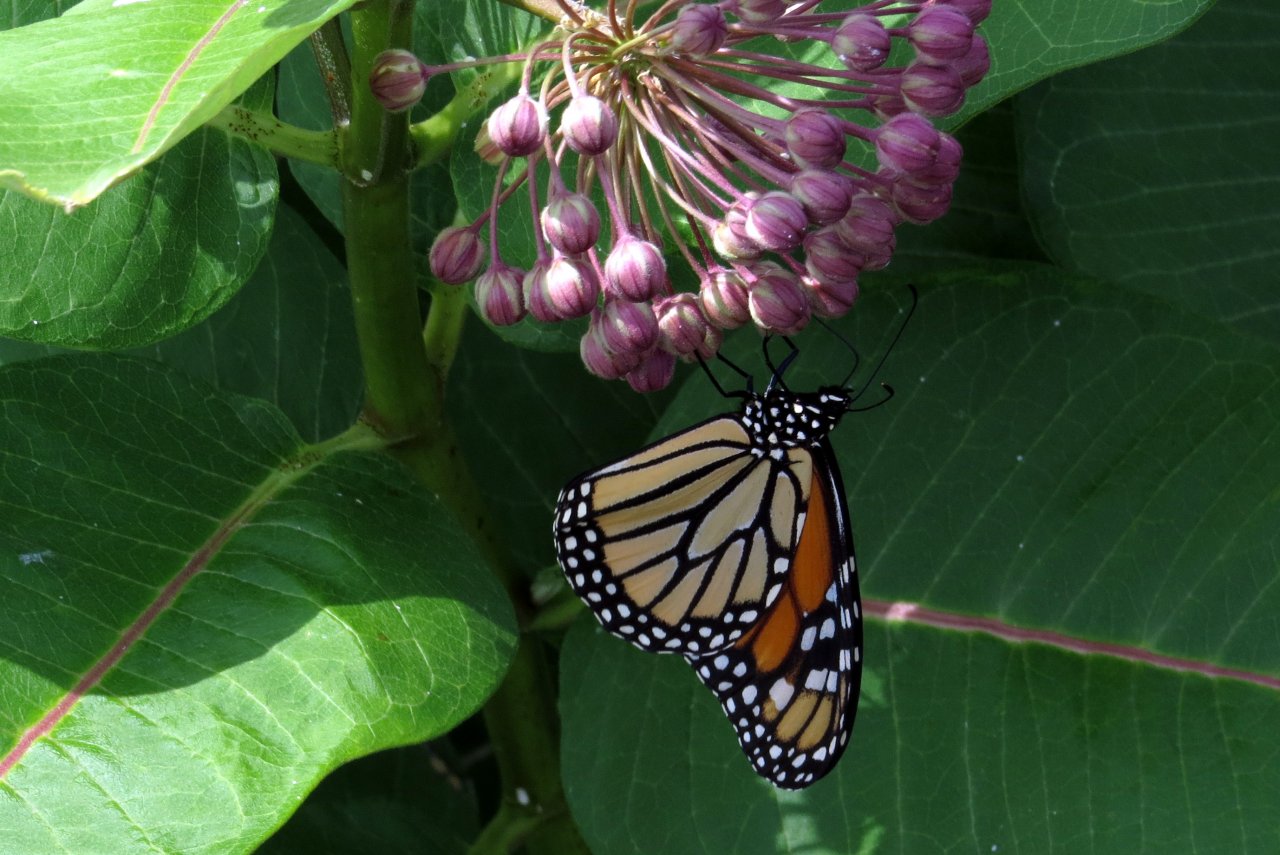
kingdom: Animalia
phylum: Arthropoda
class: Insecta
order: Lepidoptera
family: Nymphalidae
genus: Danaus
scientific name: Danaus plexippus
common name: Monarch
